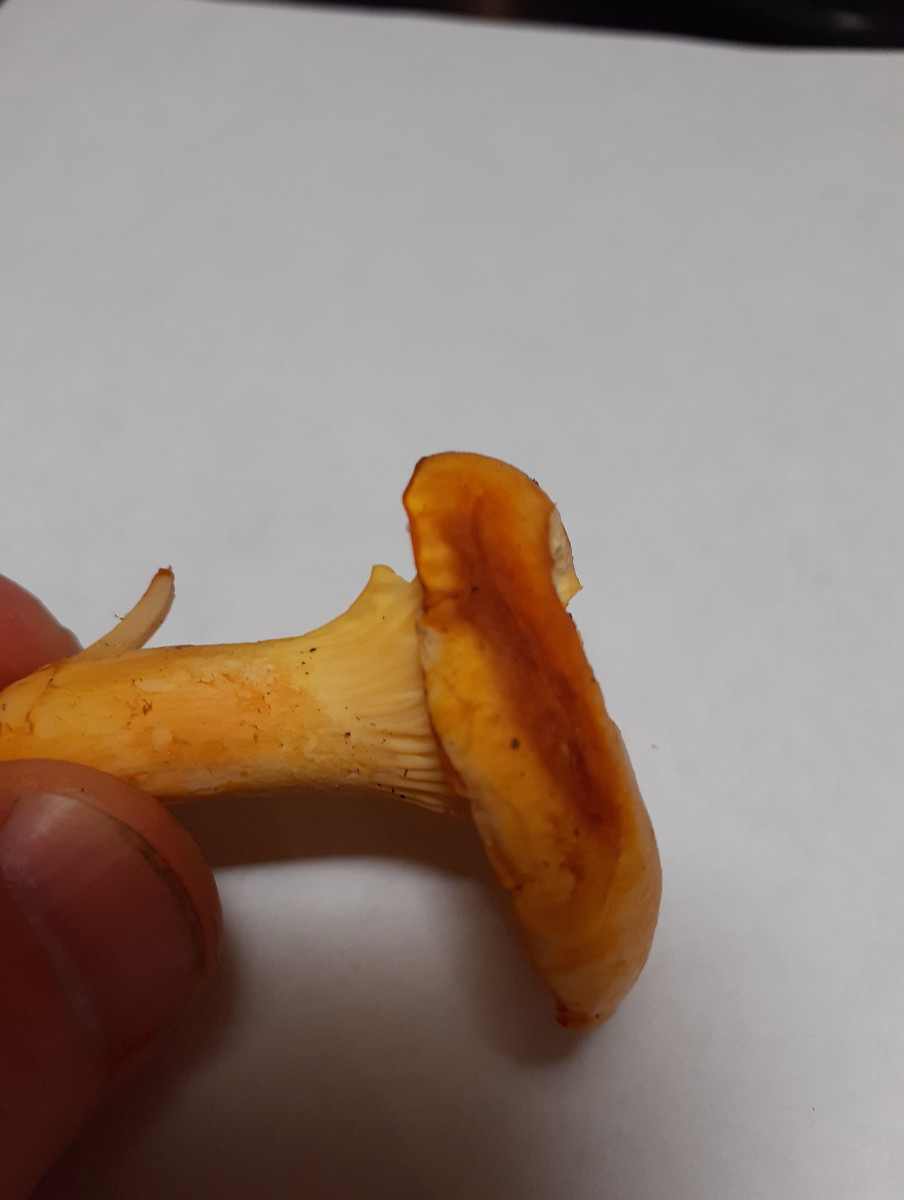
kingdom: Fungi
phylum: Basidiomycota
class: Agaricomycetes
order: Cantharellales
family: Hydnaceae
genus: Cantharellus
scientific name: Cantharellus pallens
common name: bleg kantarel
